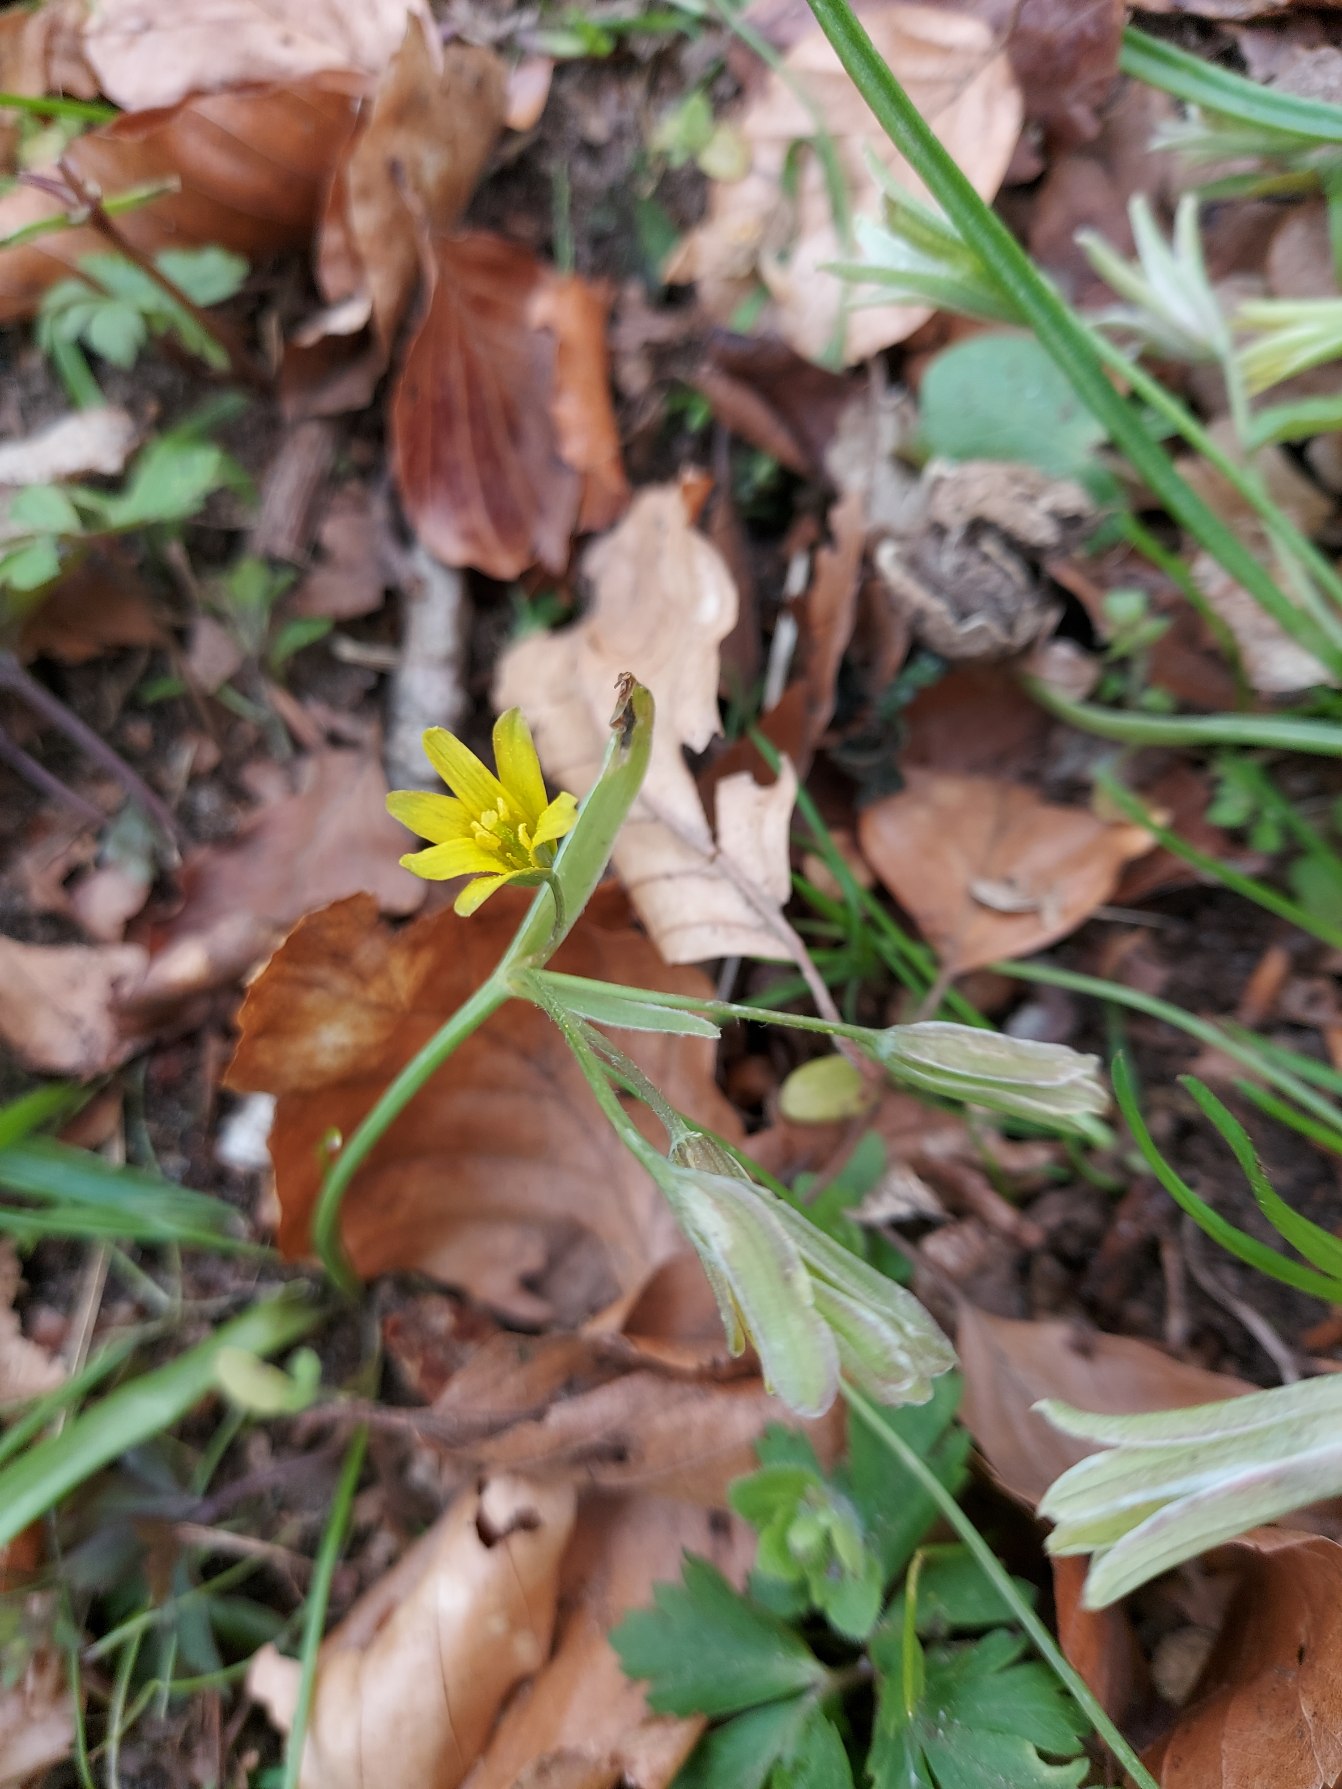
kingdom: Plantae
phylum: Tracheophyta
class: Liliopsida
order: Liliales
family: Liliaceae
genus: Gagea
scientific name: Gagea lutea
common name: Almindelig guldstjerne
